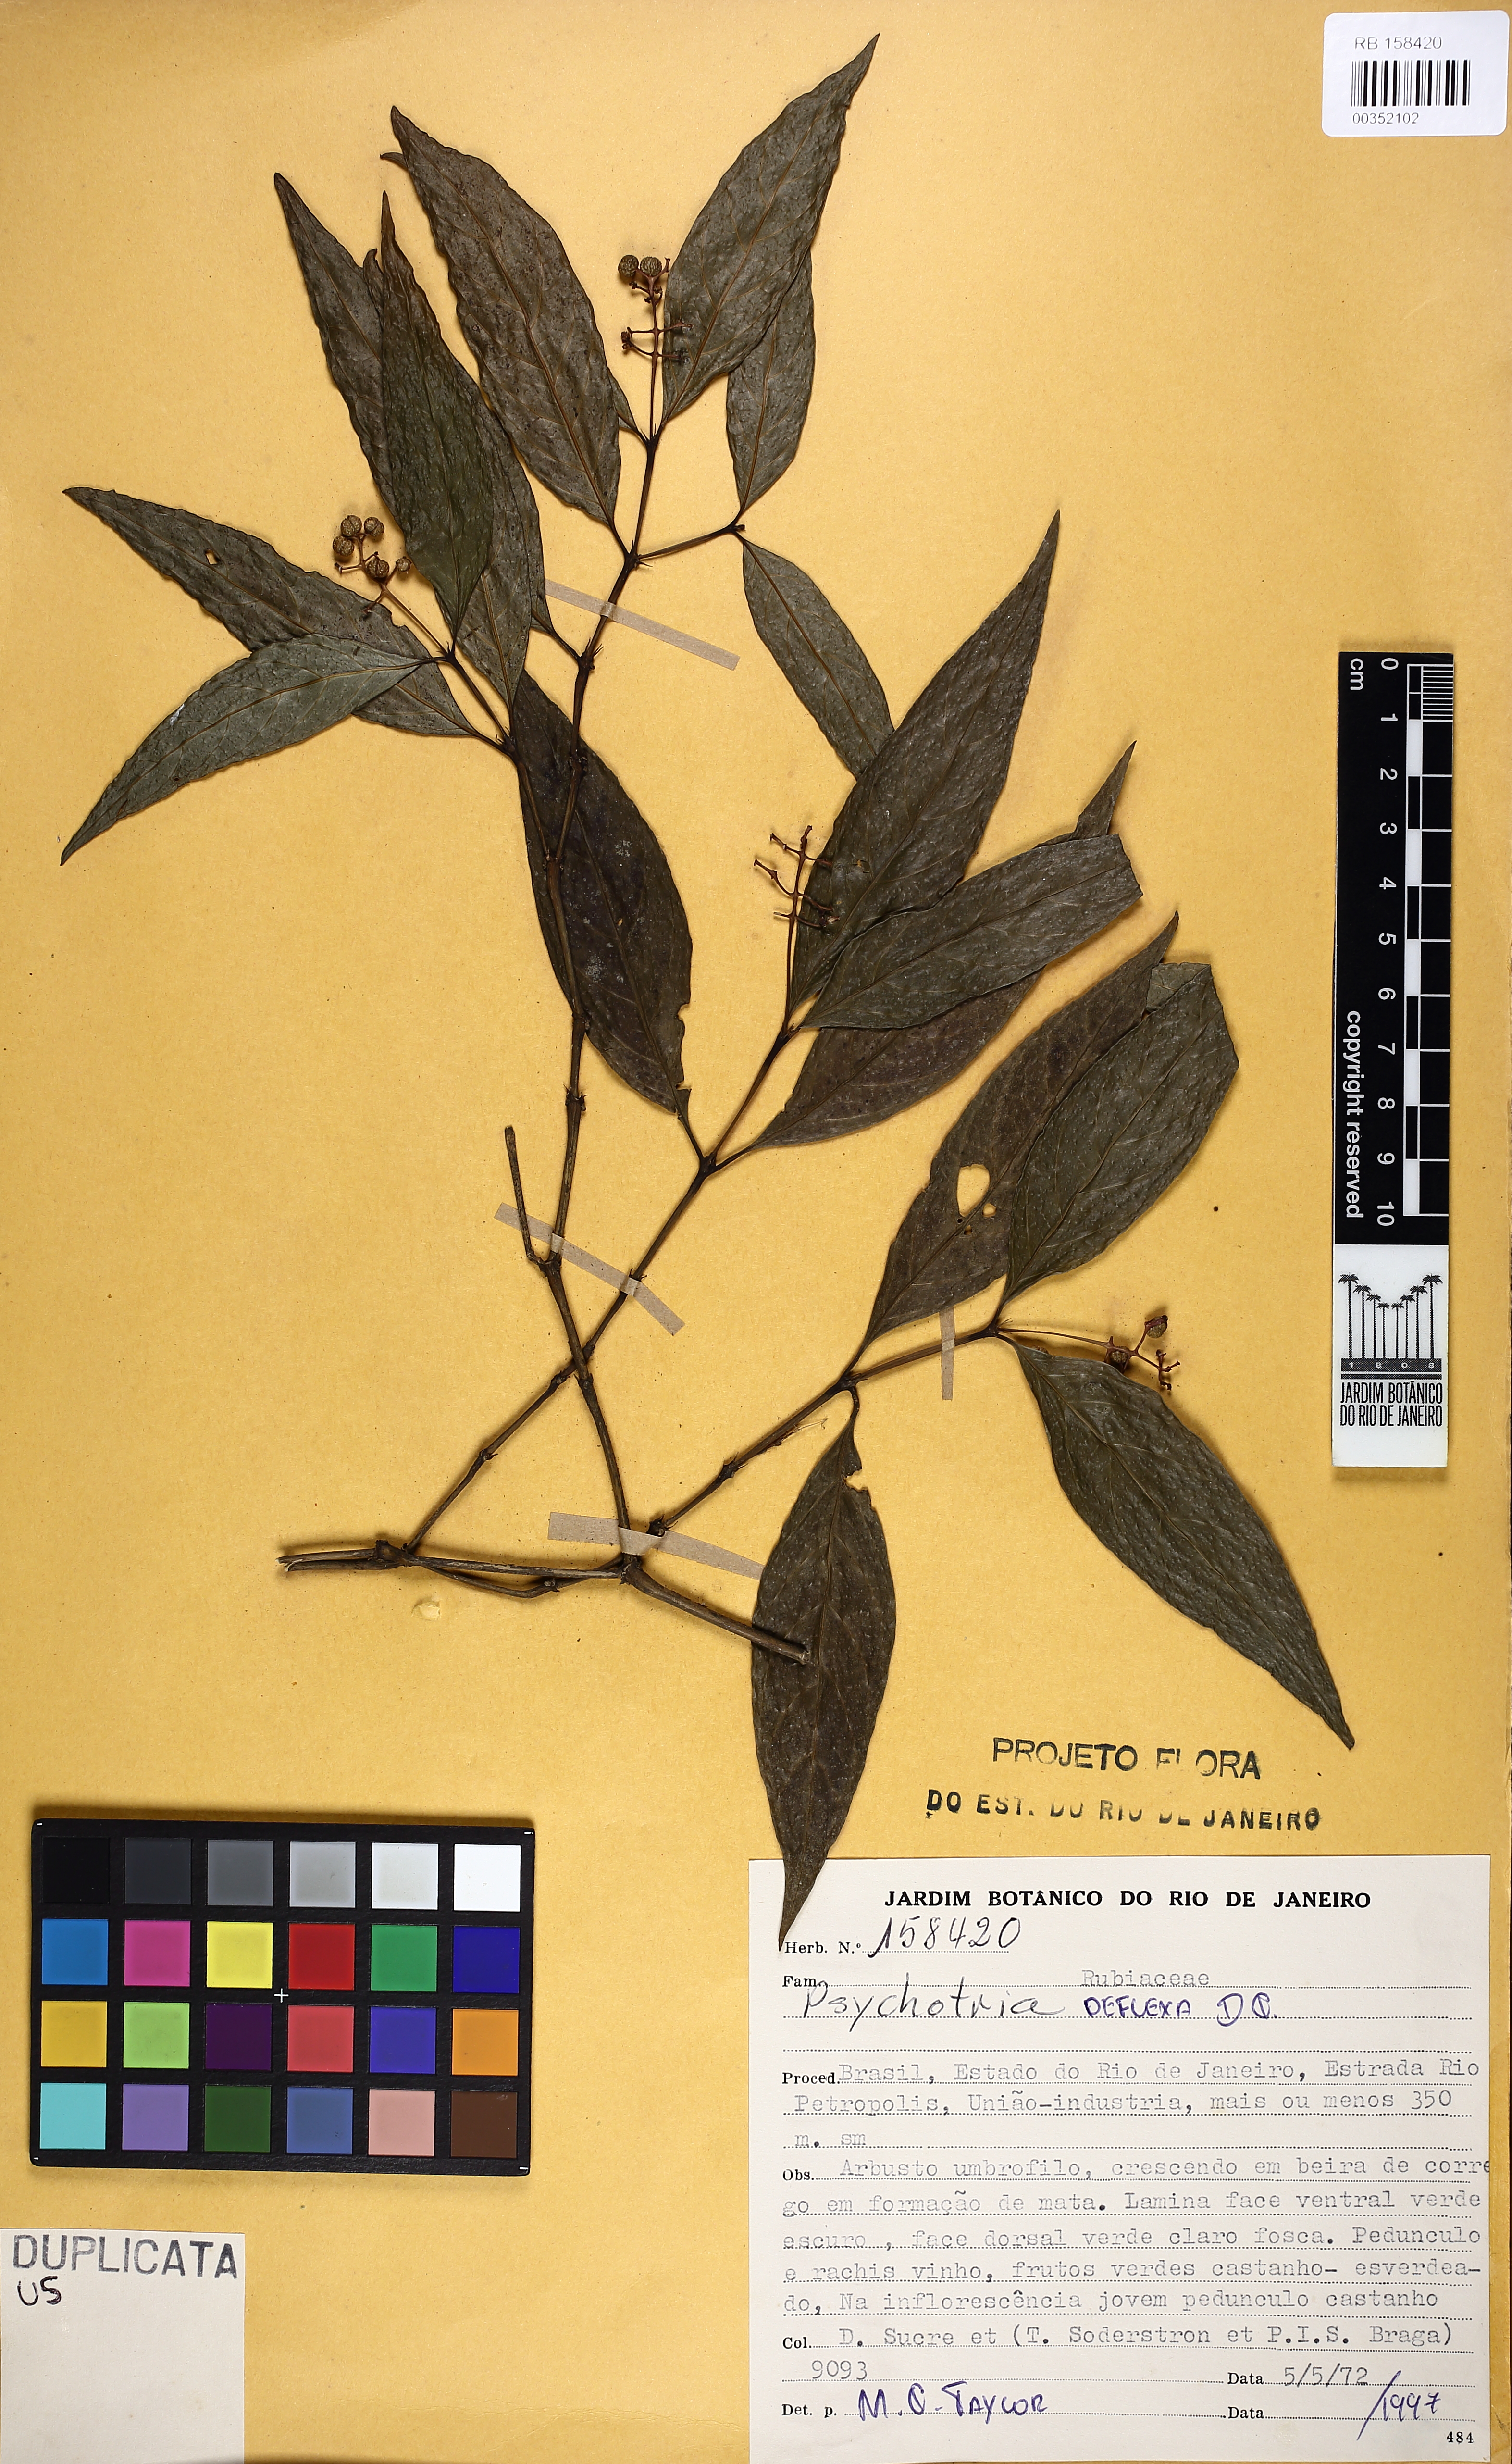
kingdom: Plantae
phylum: Tracheophyta
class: Magnoliopsida
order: Gentianales
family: Rubiaceae
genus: Palicourea
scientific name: Palicourea deflexa
